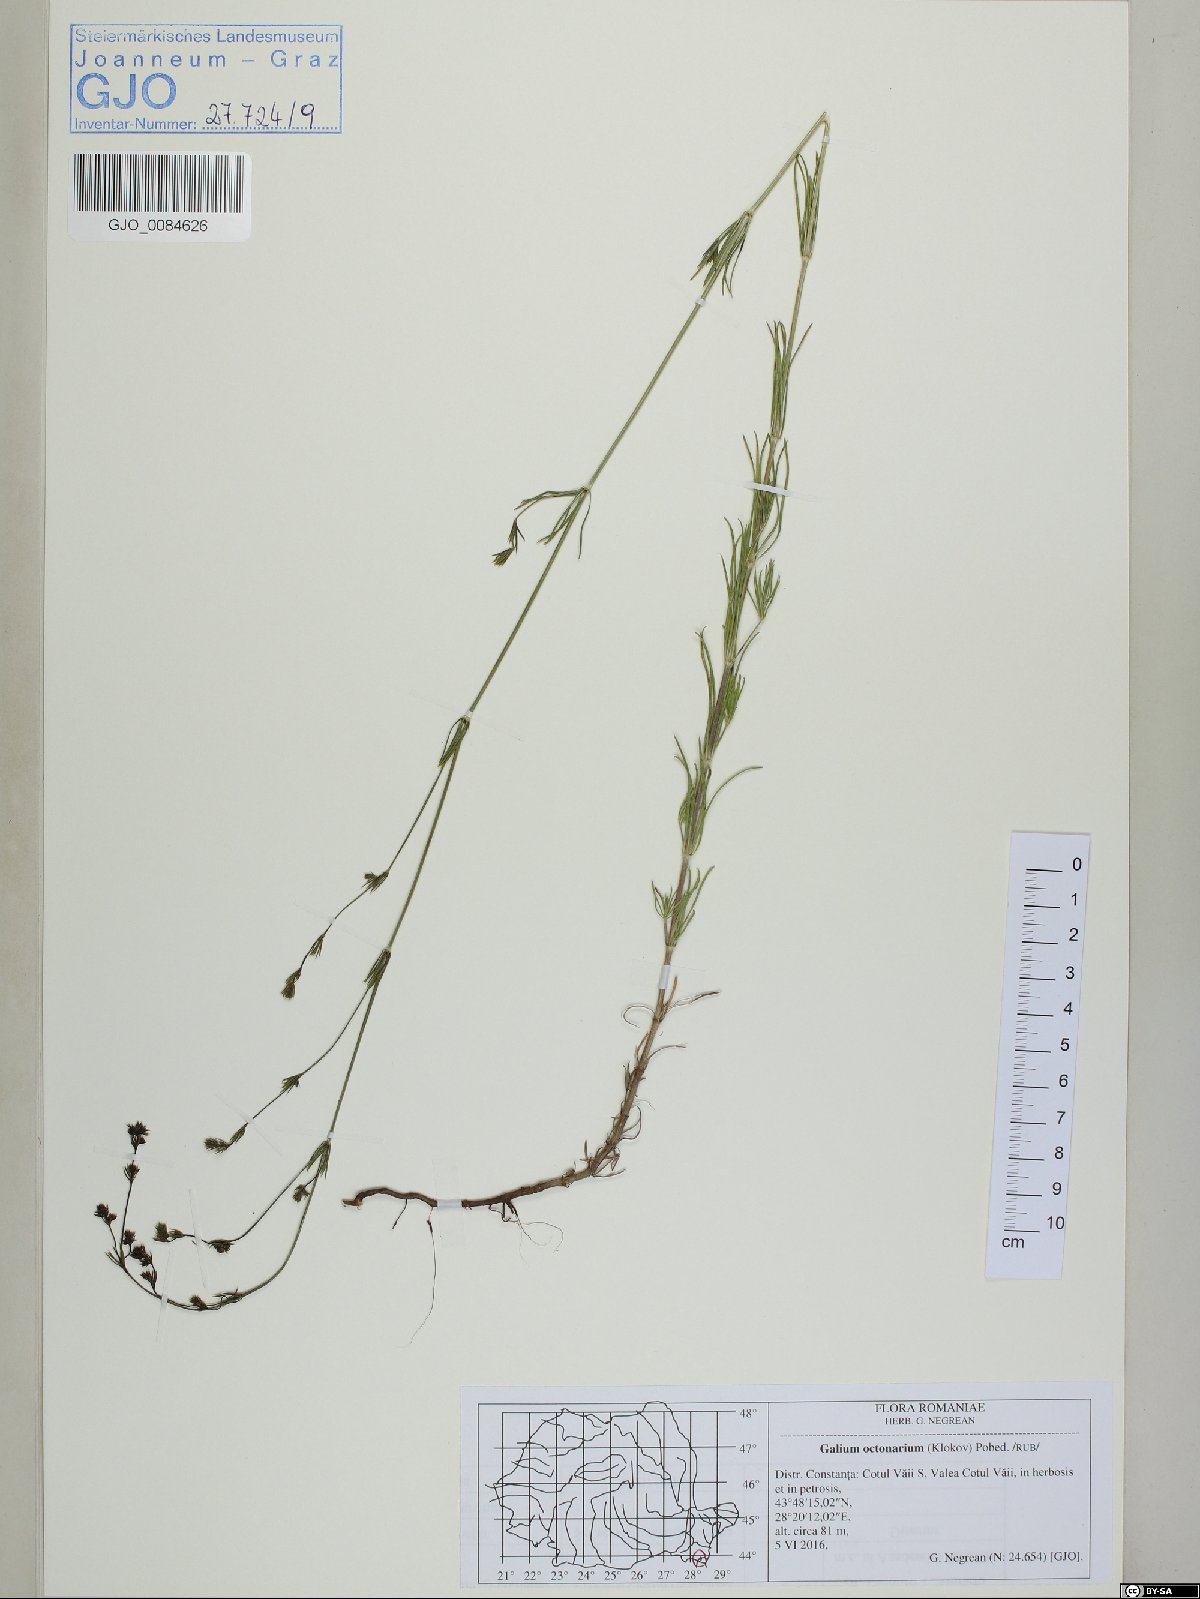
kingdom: Plantae
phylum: Tracheophyta
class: Magnoliopsida
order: Gentianales
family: Rubiaceae
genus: Galium
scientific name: Galium octonarium
